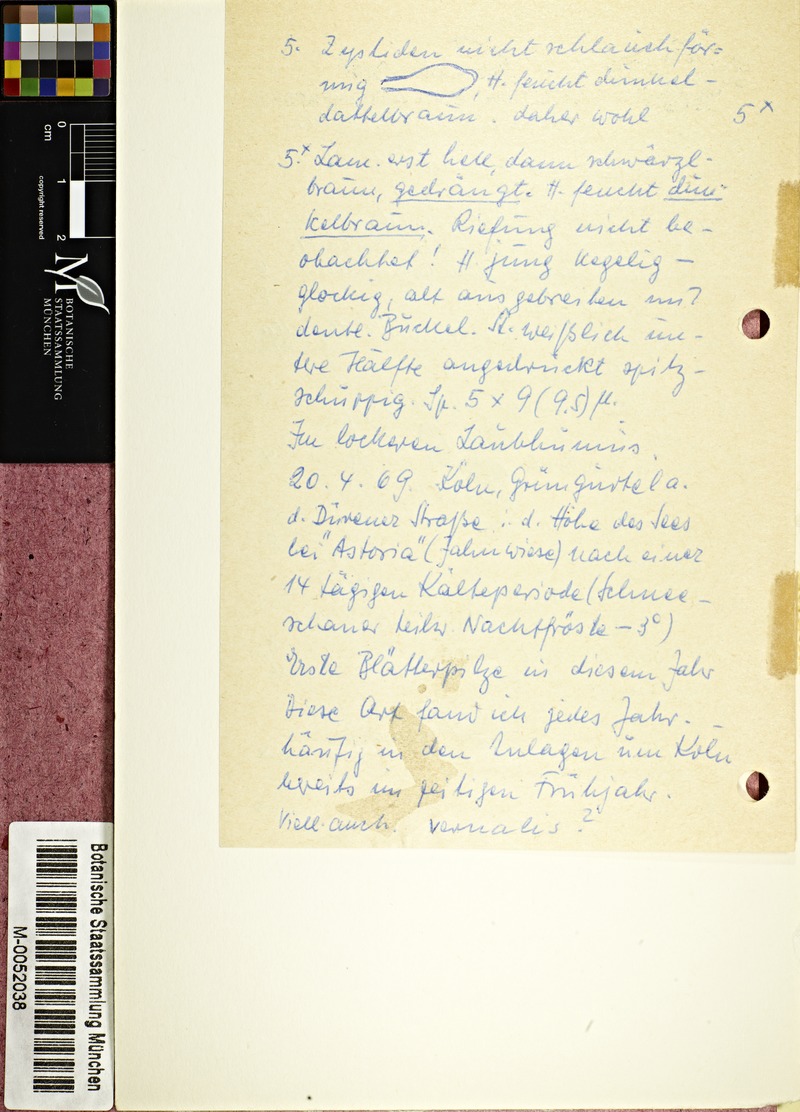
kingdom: Fungi
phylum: Basidiomycota
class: Agaricomycetes
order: Agaricales
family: Psathyrellaceae
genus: Psathyrella
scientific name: Psathyrella spadiceogrisea
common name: Spring brittlestem
